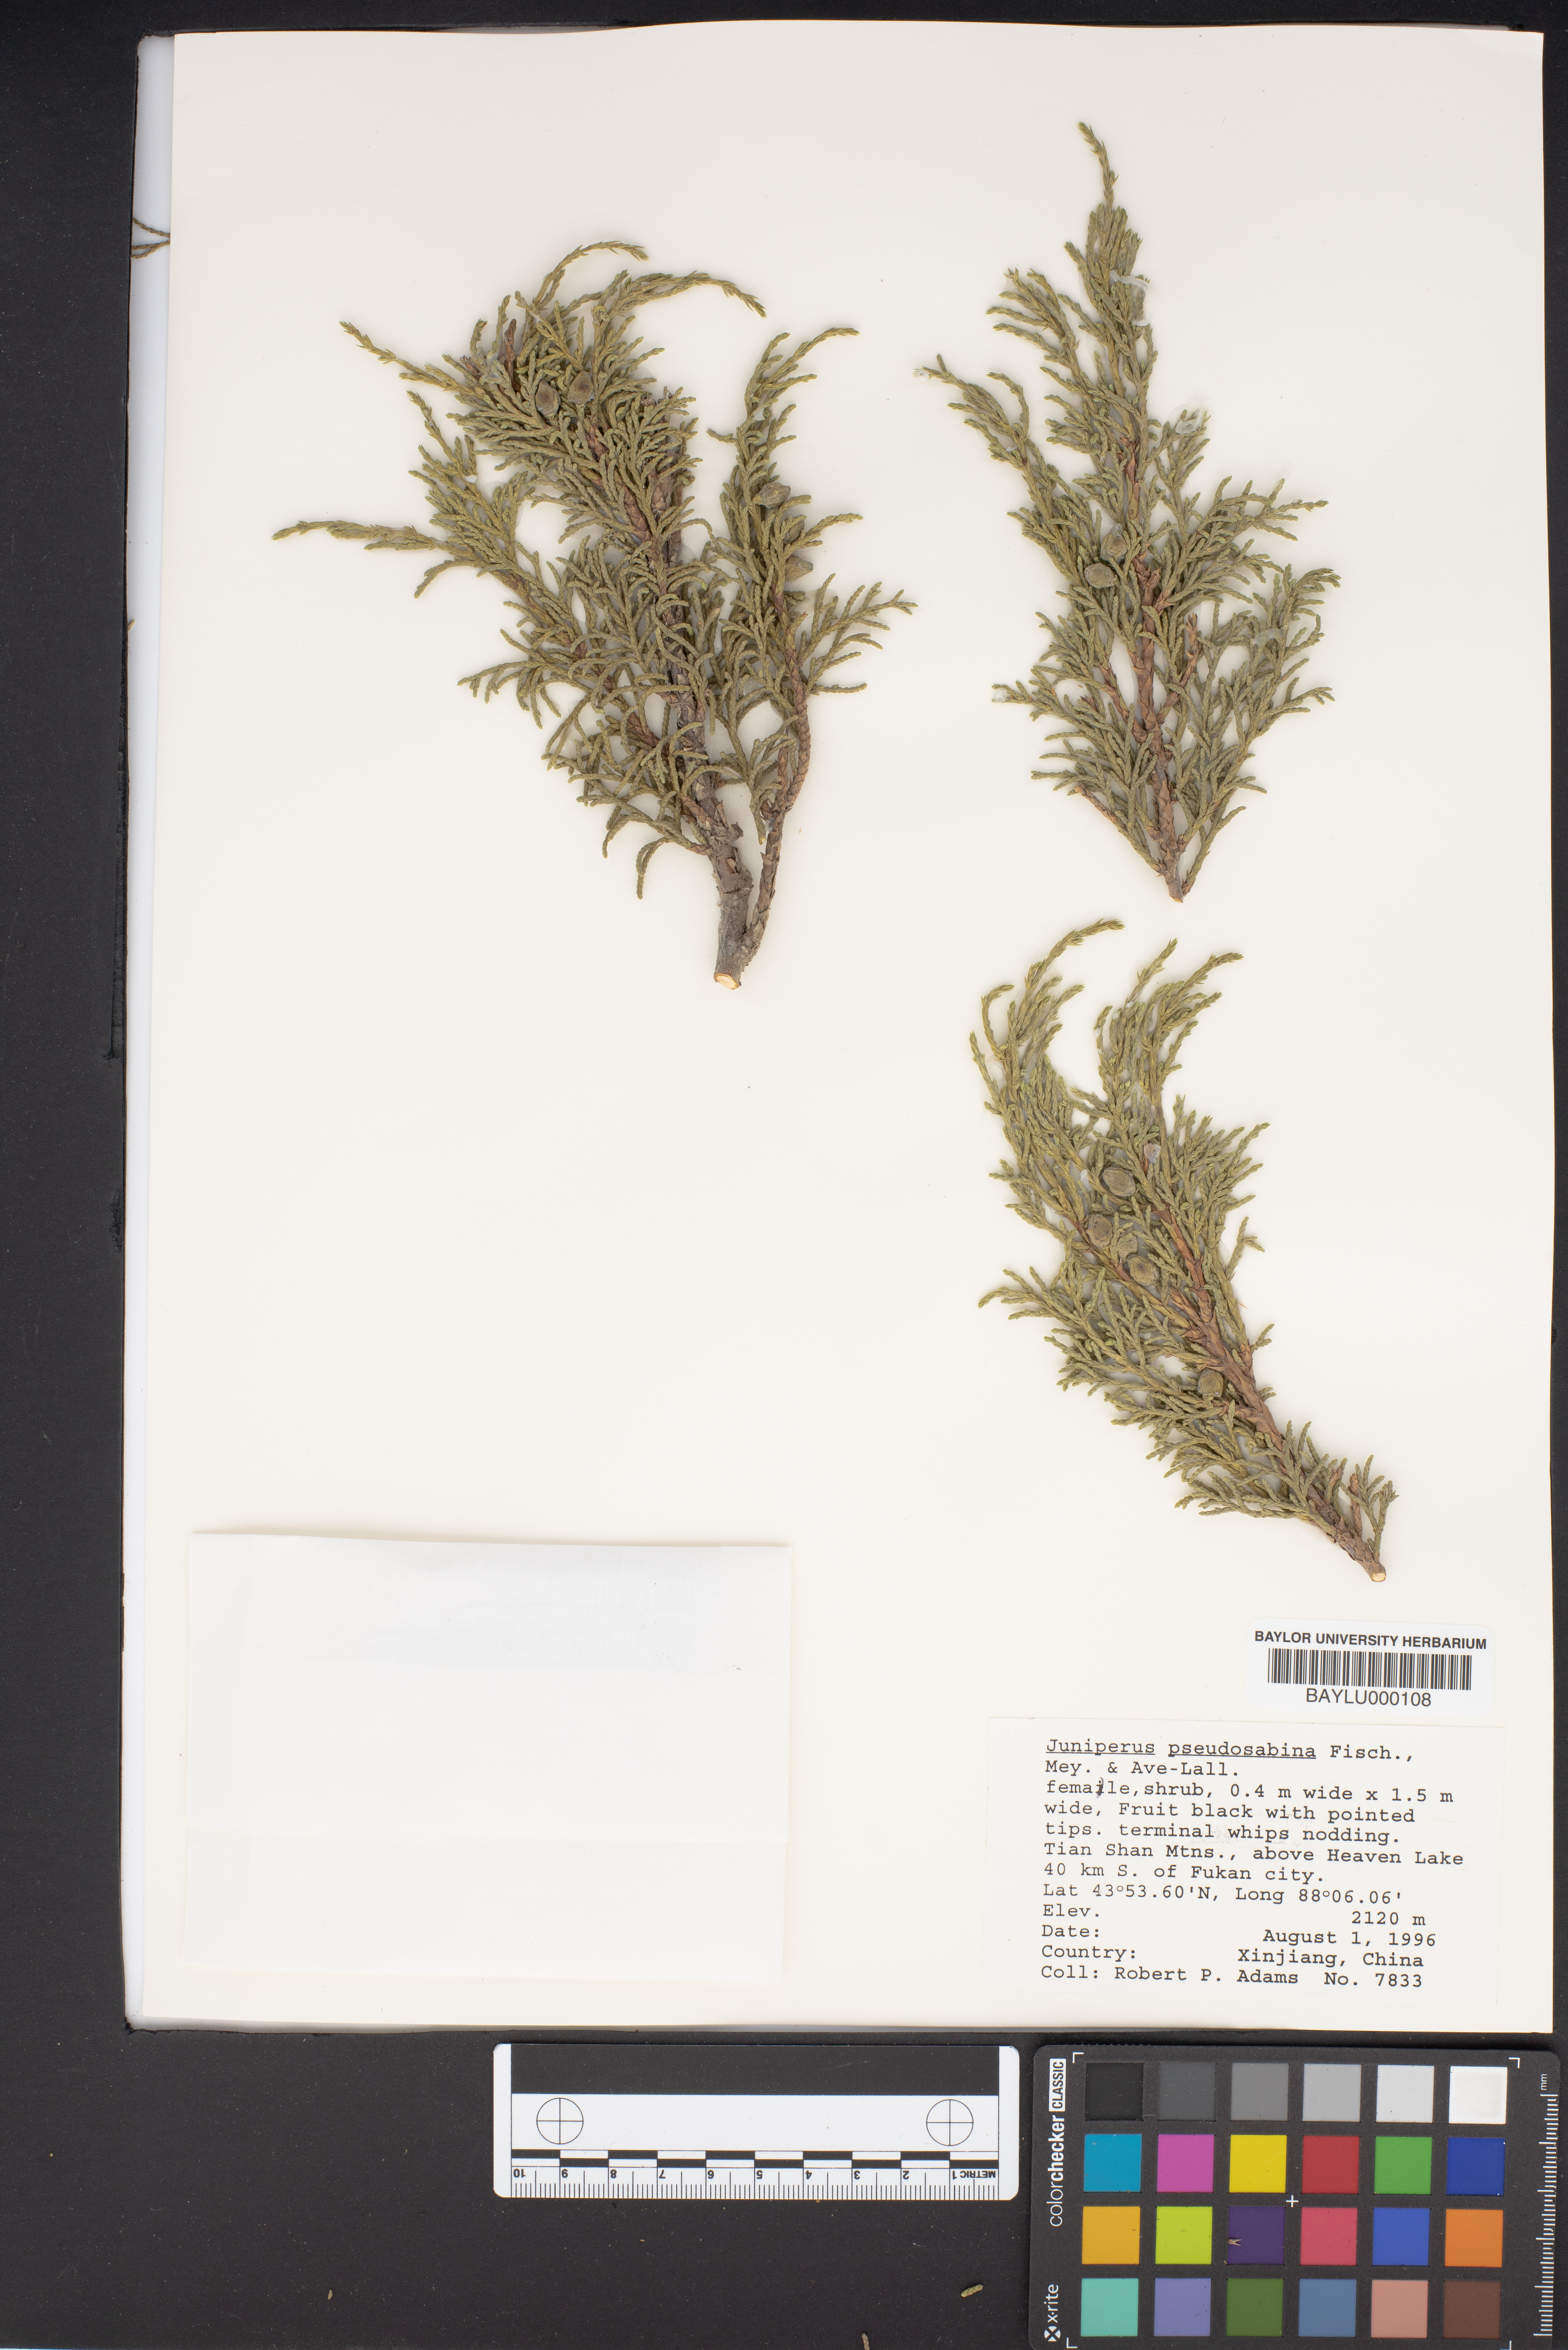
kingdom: Plantae
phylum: Tracheophyta
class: Pinopsida
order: Pinales
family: Cupressaceae
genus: Juniperus
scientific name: Juniperus pseudosabina
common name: Turkestan juniper
